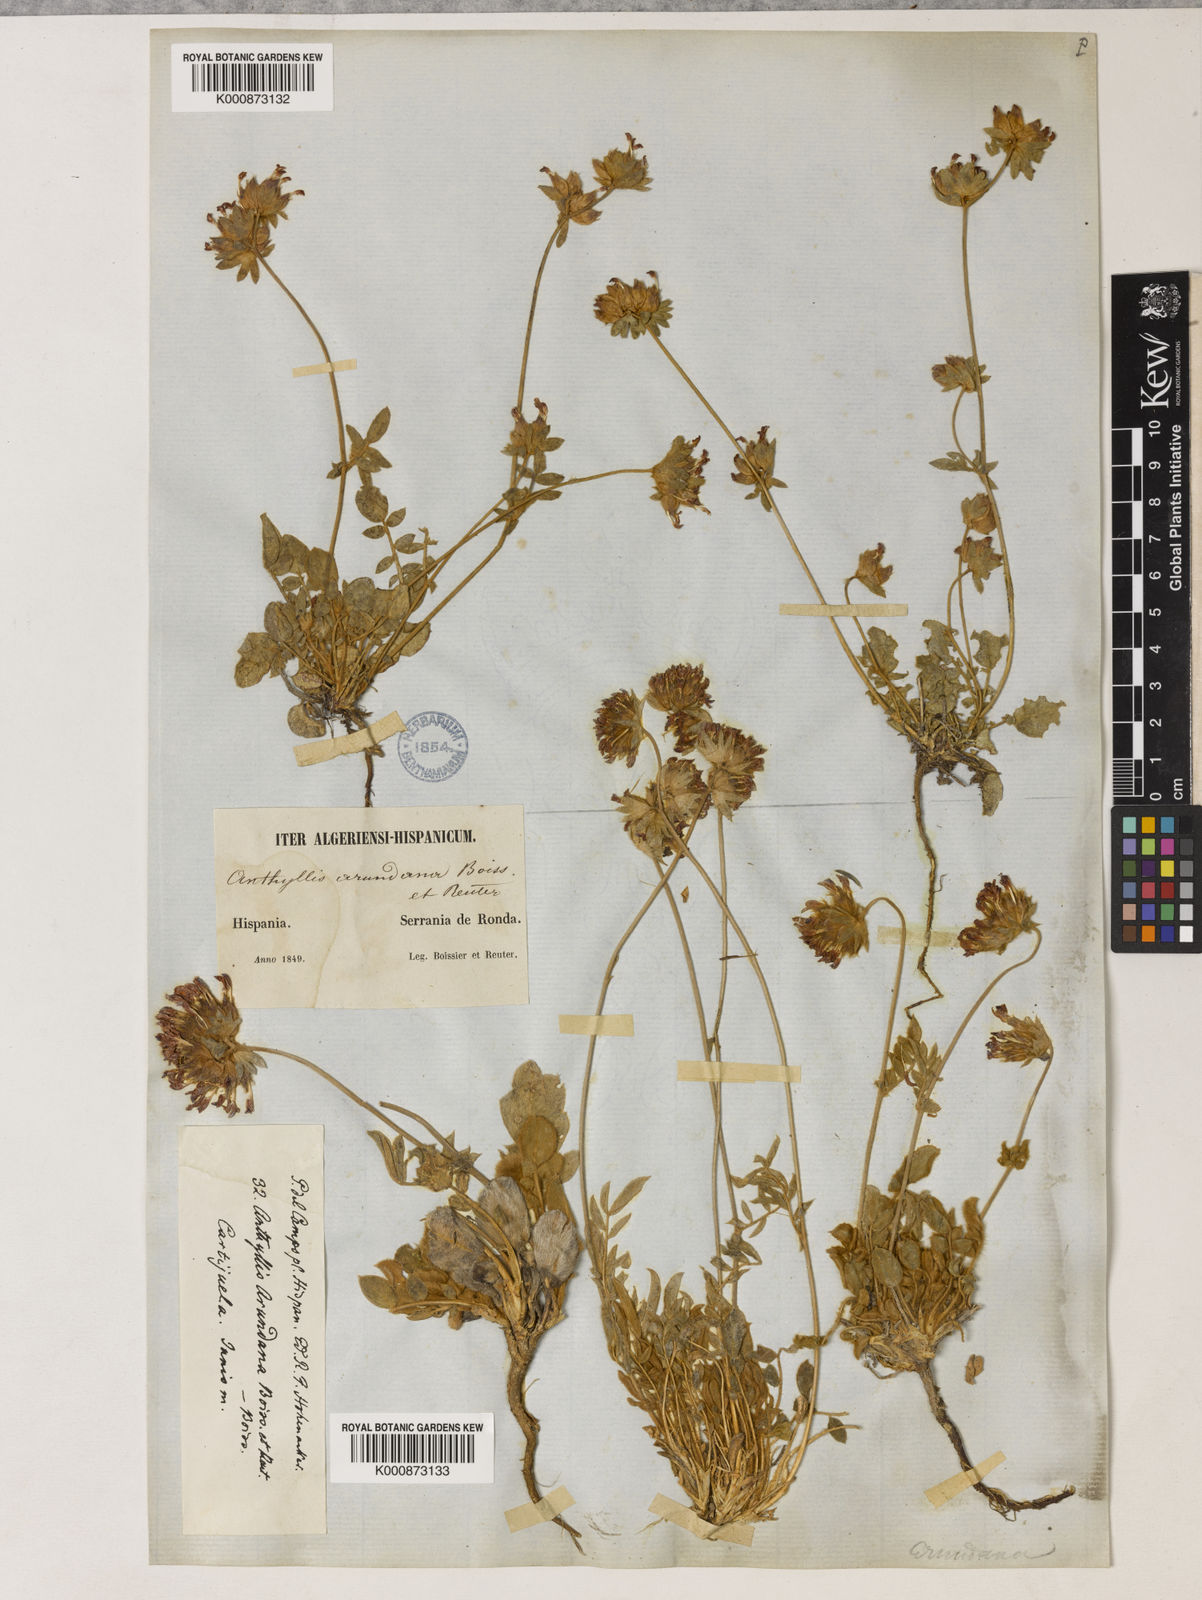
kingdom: Plantae
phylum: Tracheophyta
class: Magnoliopsida
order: Fabales
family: Fabaceae
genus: Anthyllis
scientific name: Anthyllis vulneraria
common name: Kidney vetch
